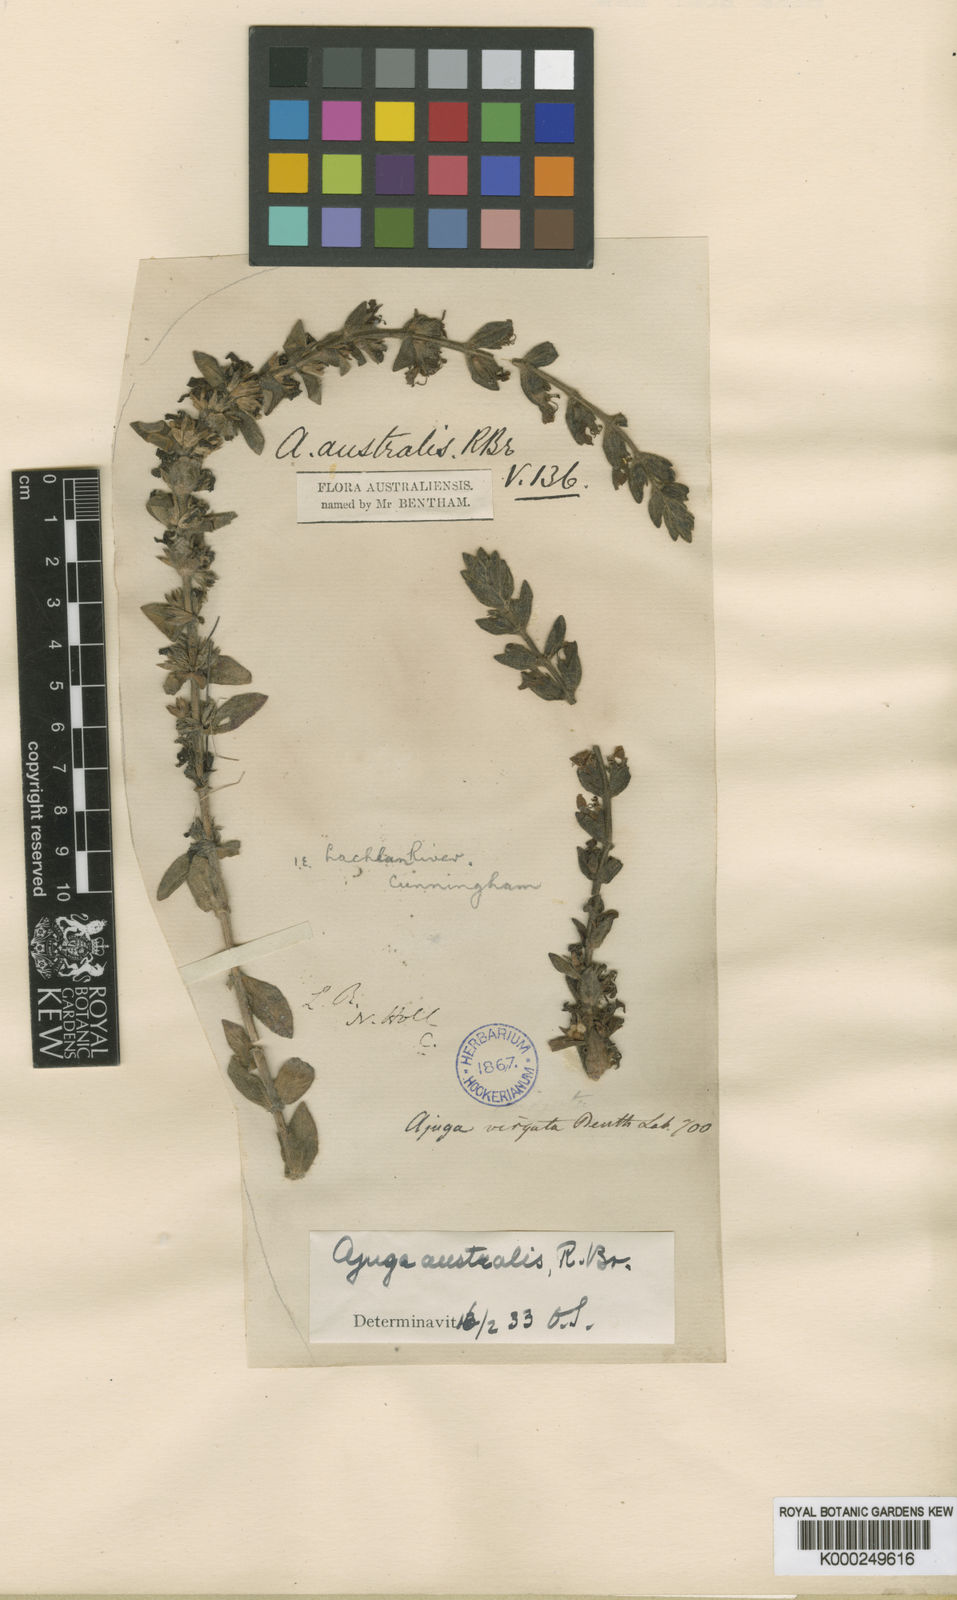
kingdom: Plantae
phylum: Tracheophyta
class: Magnoliopsida
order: Lamiales
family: Lamiaceae
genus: Ajuga
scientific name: Ajuga australis
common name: Australian bugle
